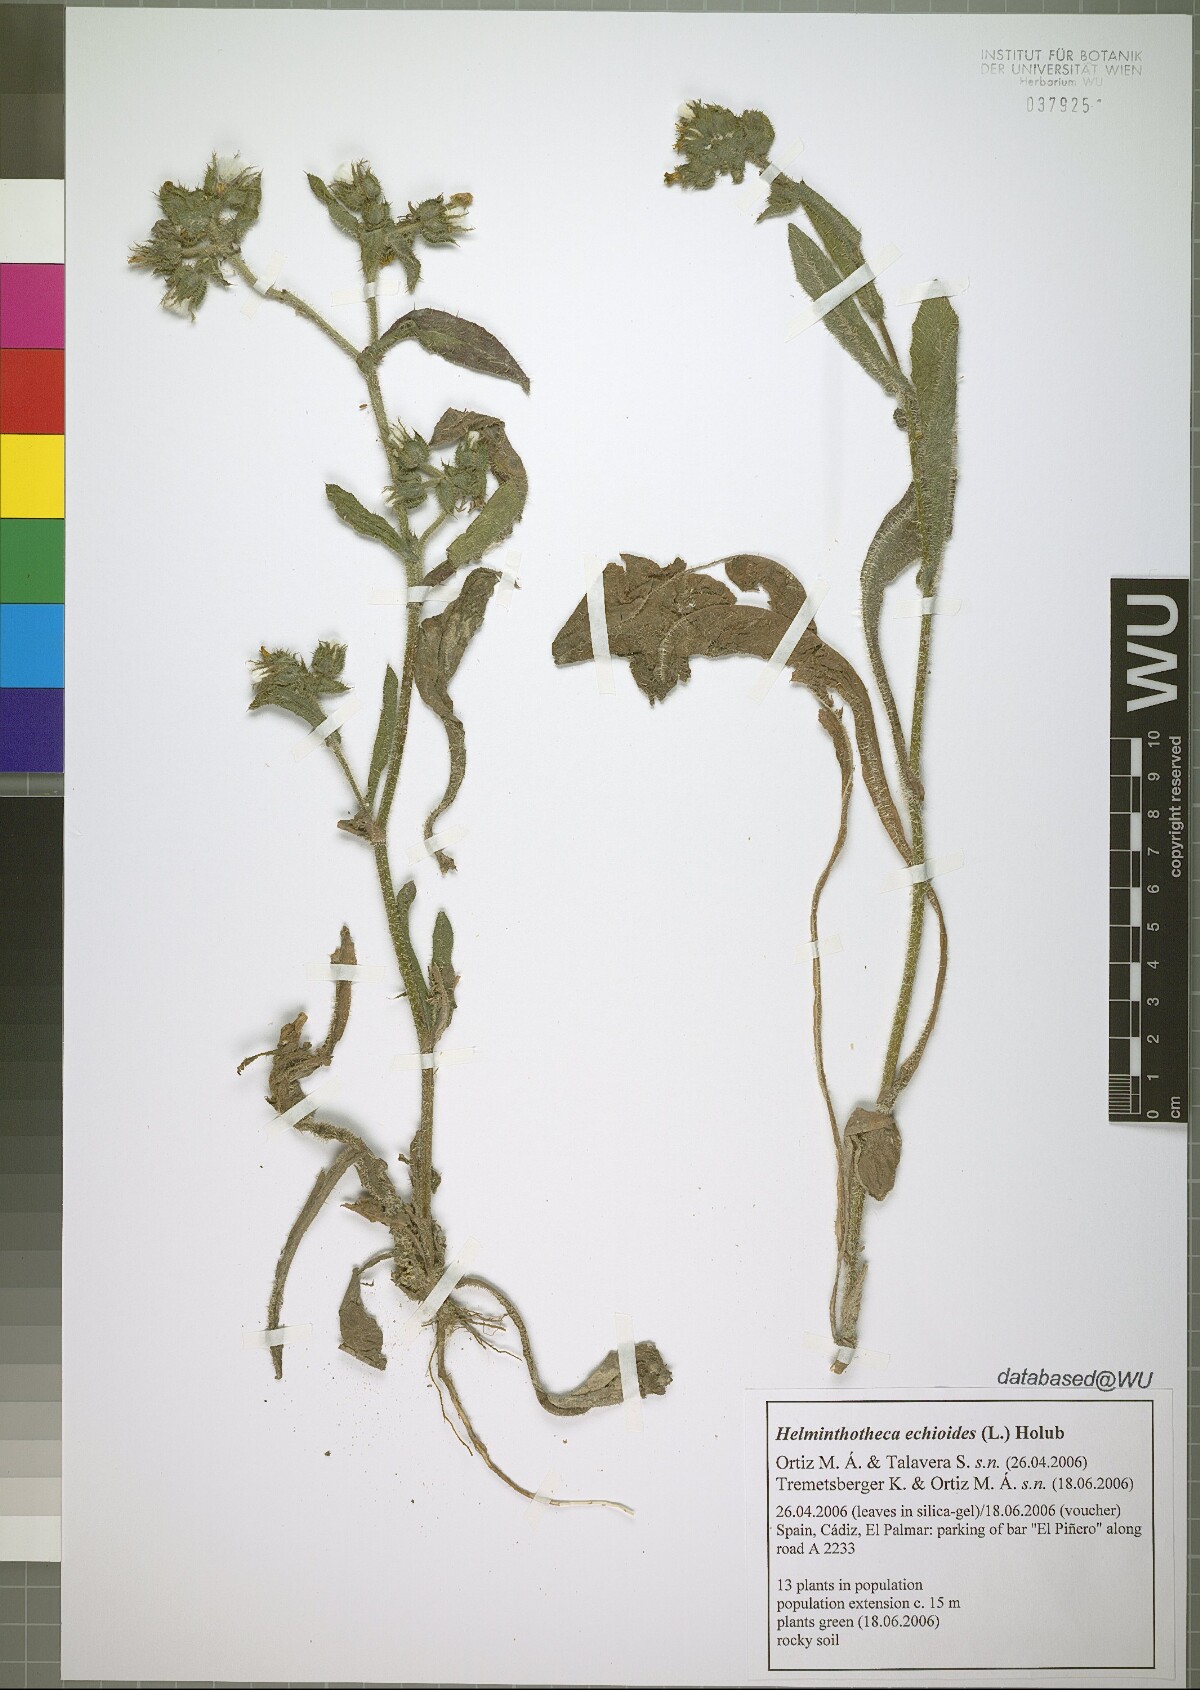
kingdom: Plantae
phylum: Tracheophyta
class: Magnoliopsida
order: Asterales
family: Asteraceae
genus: Helminthotheca
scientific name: Helminthotheca echioides
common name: Ox-tongue
